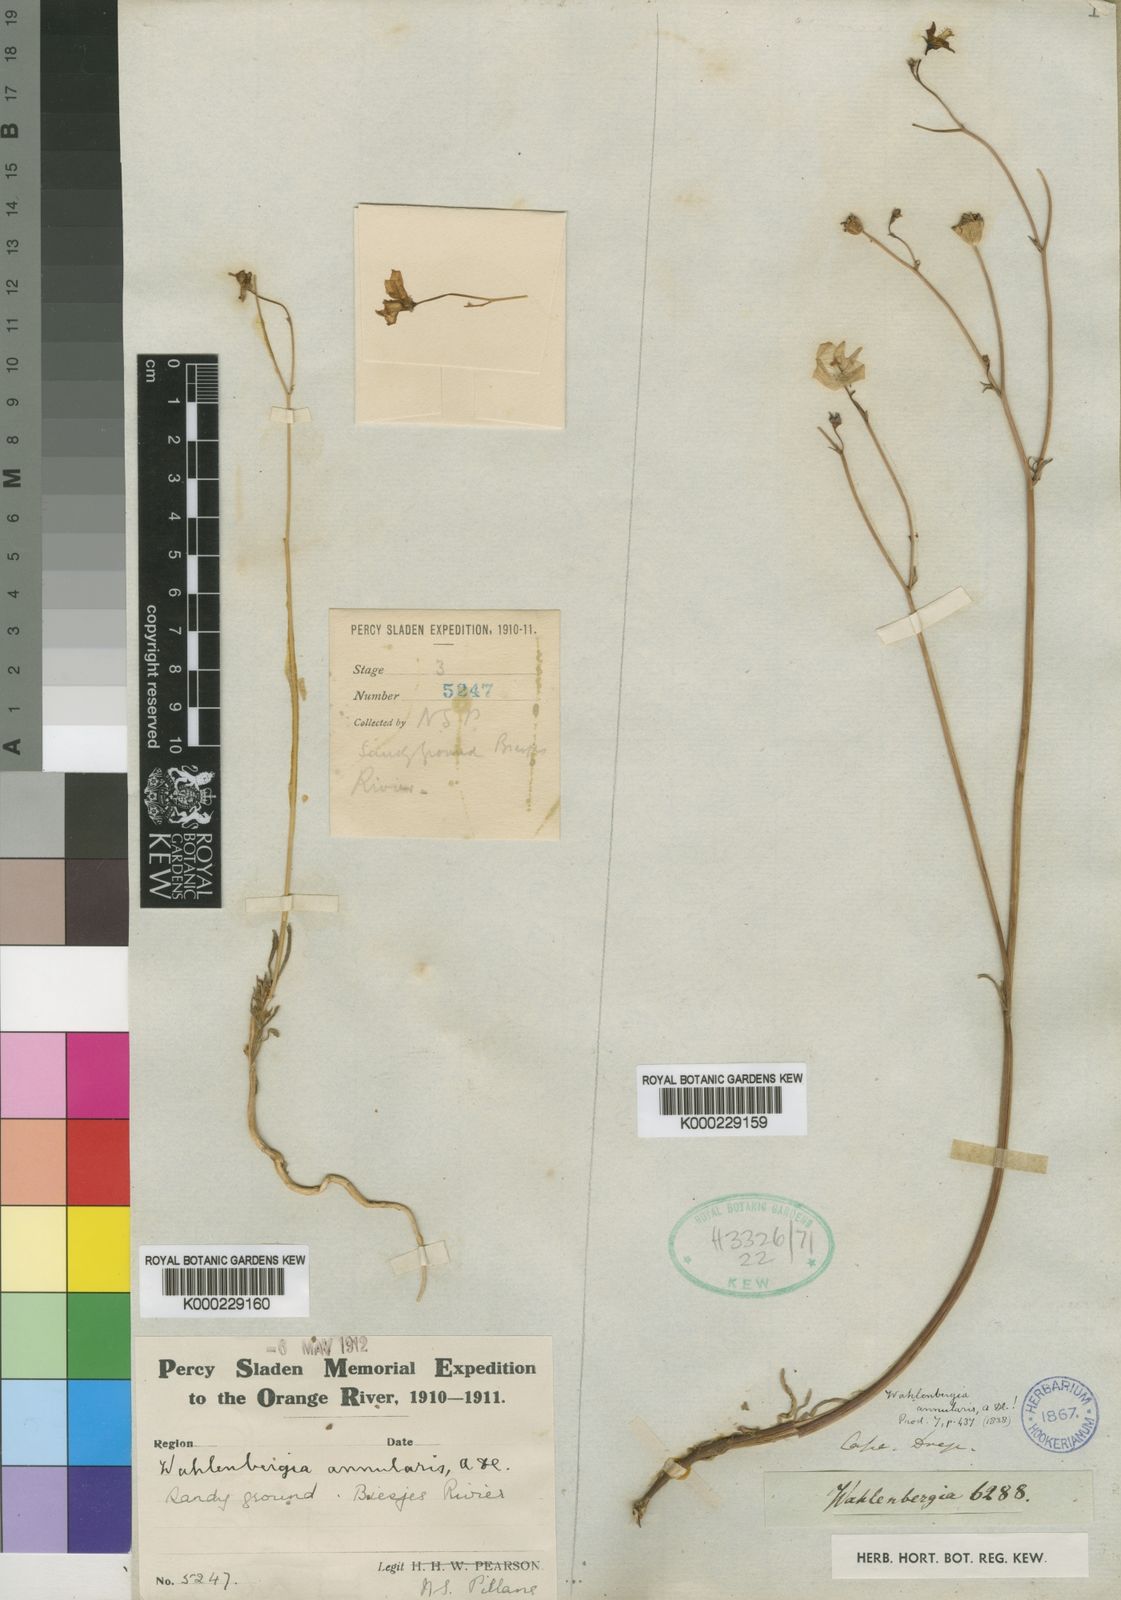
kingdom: Plantae
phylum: Tracheophyta
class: Magnoliopsida
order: Asterales
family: Campanulaceae
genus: Wahlenbergia
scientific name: Wahlenbergia annularis
